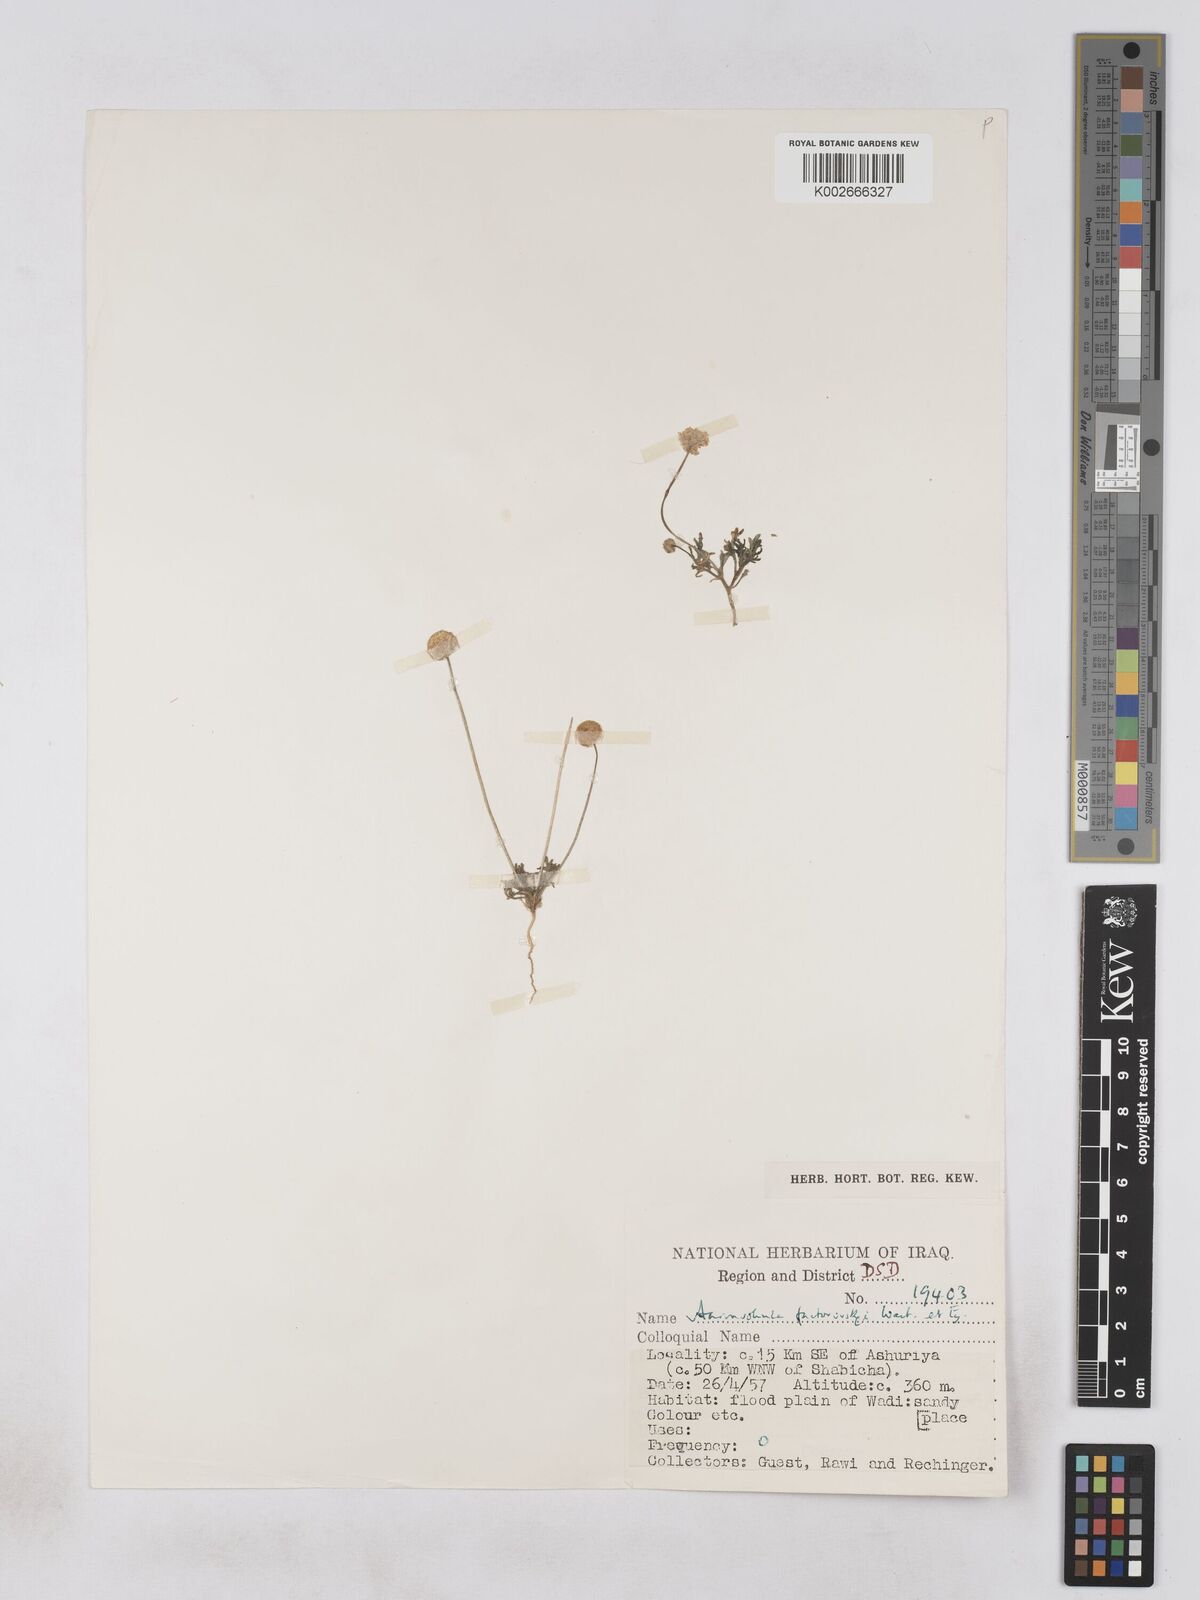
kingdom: Plantae
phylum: Tracheophyta
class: Magnoliopsida
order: Asterales
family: Asteraceae
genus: Otoglyphis
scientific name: Otoglyphis factorovskyi
